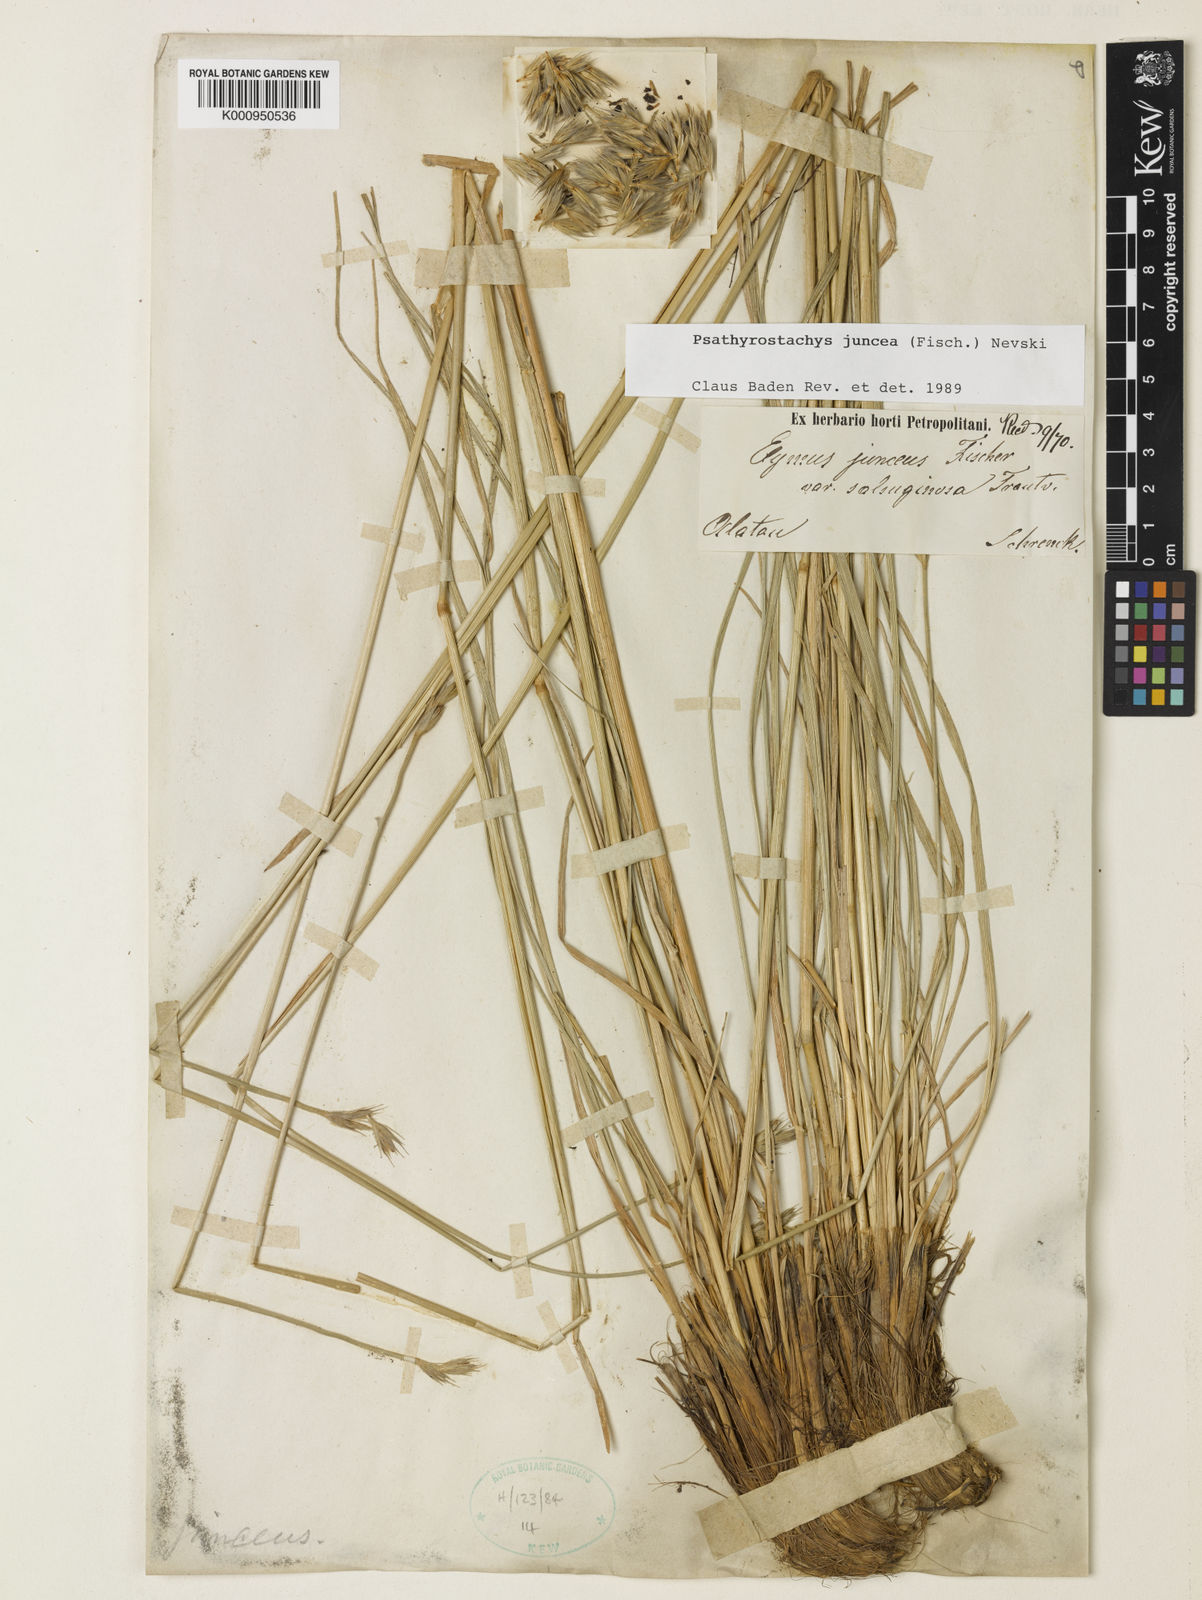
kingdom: Plantae
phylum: Tracheophyta
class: Liliopsida
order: Poales
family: Poaceae
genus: Psathyrostachys
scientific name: Psathyrostachys juncea
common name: Russian wildrye
